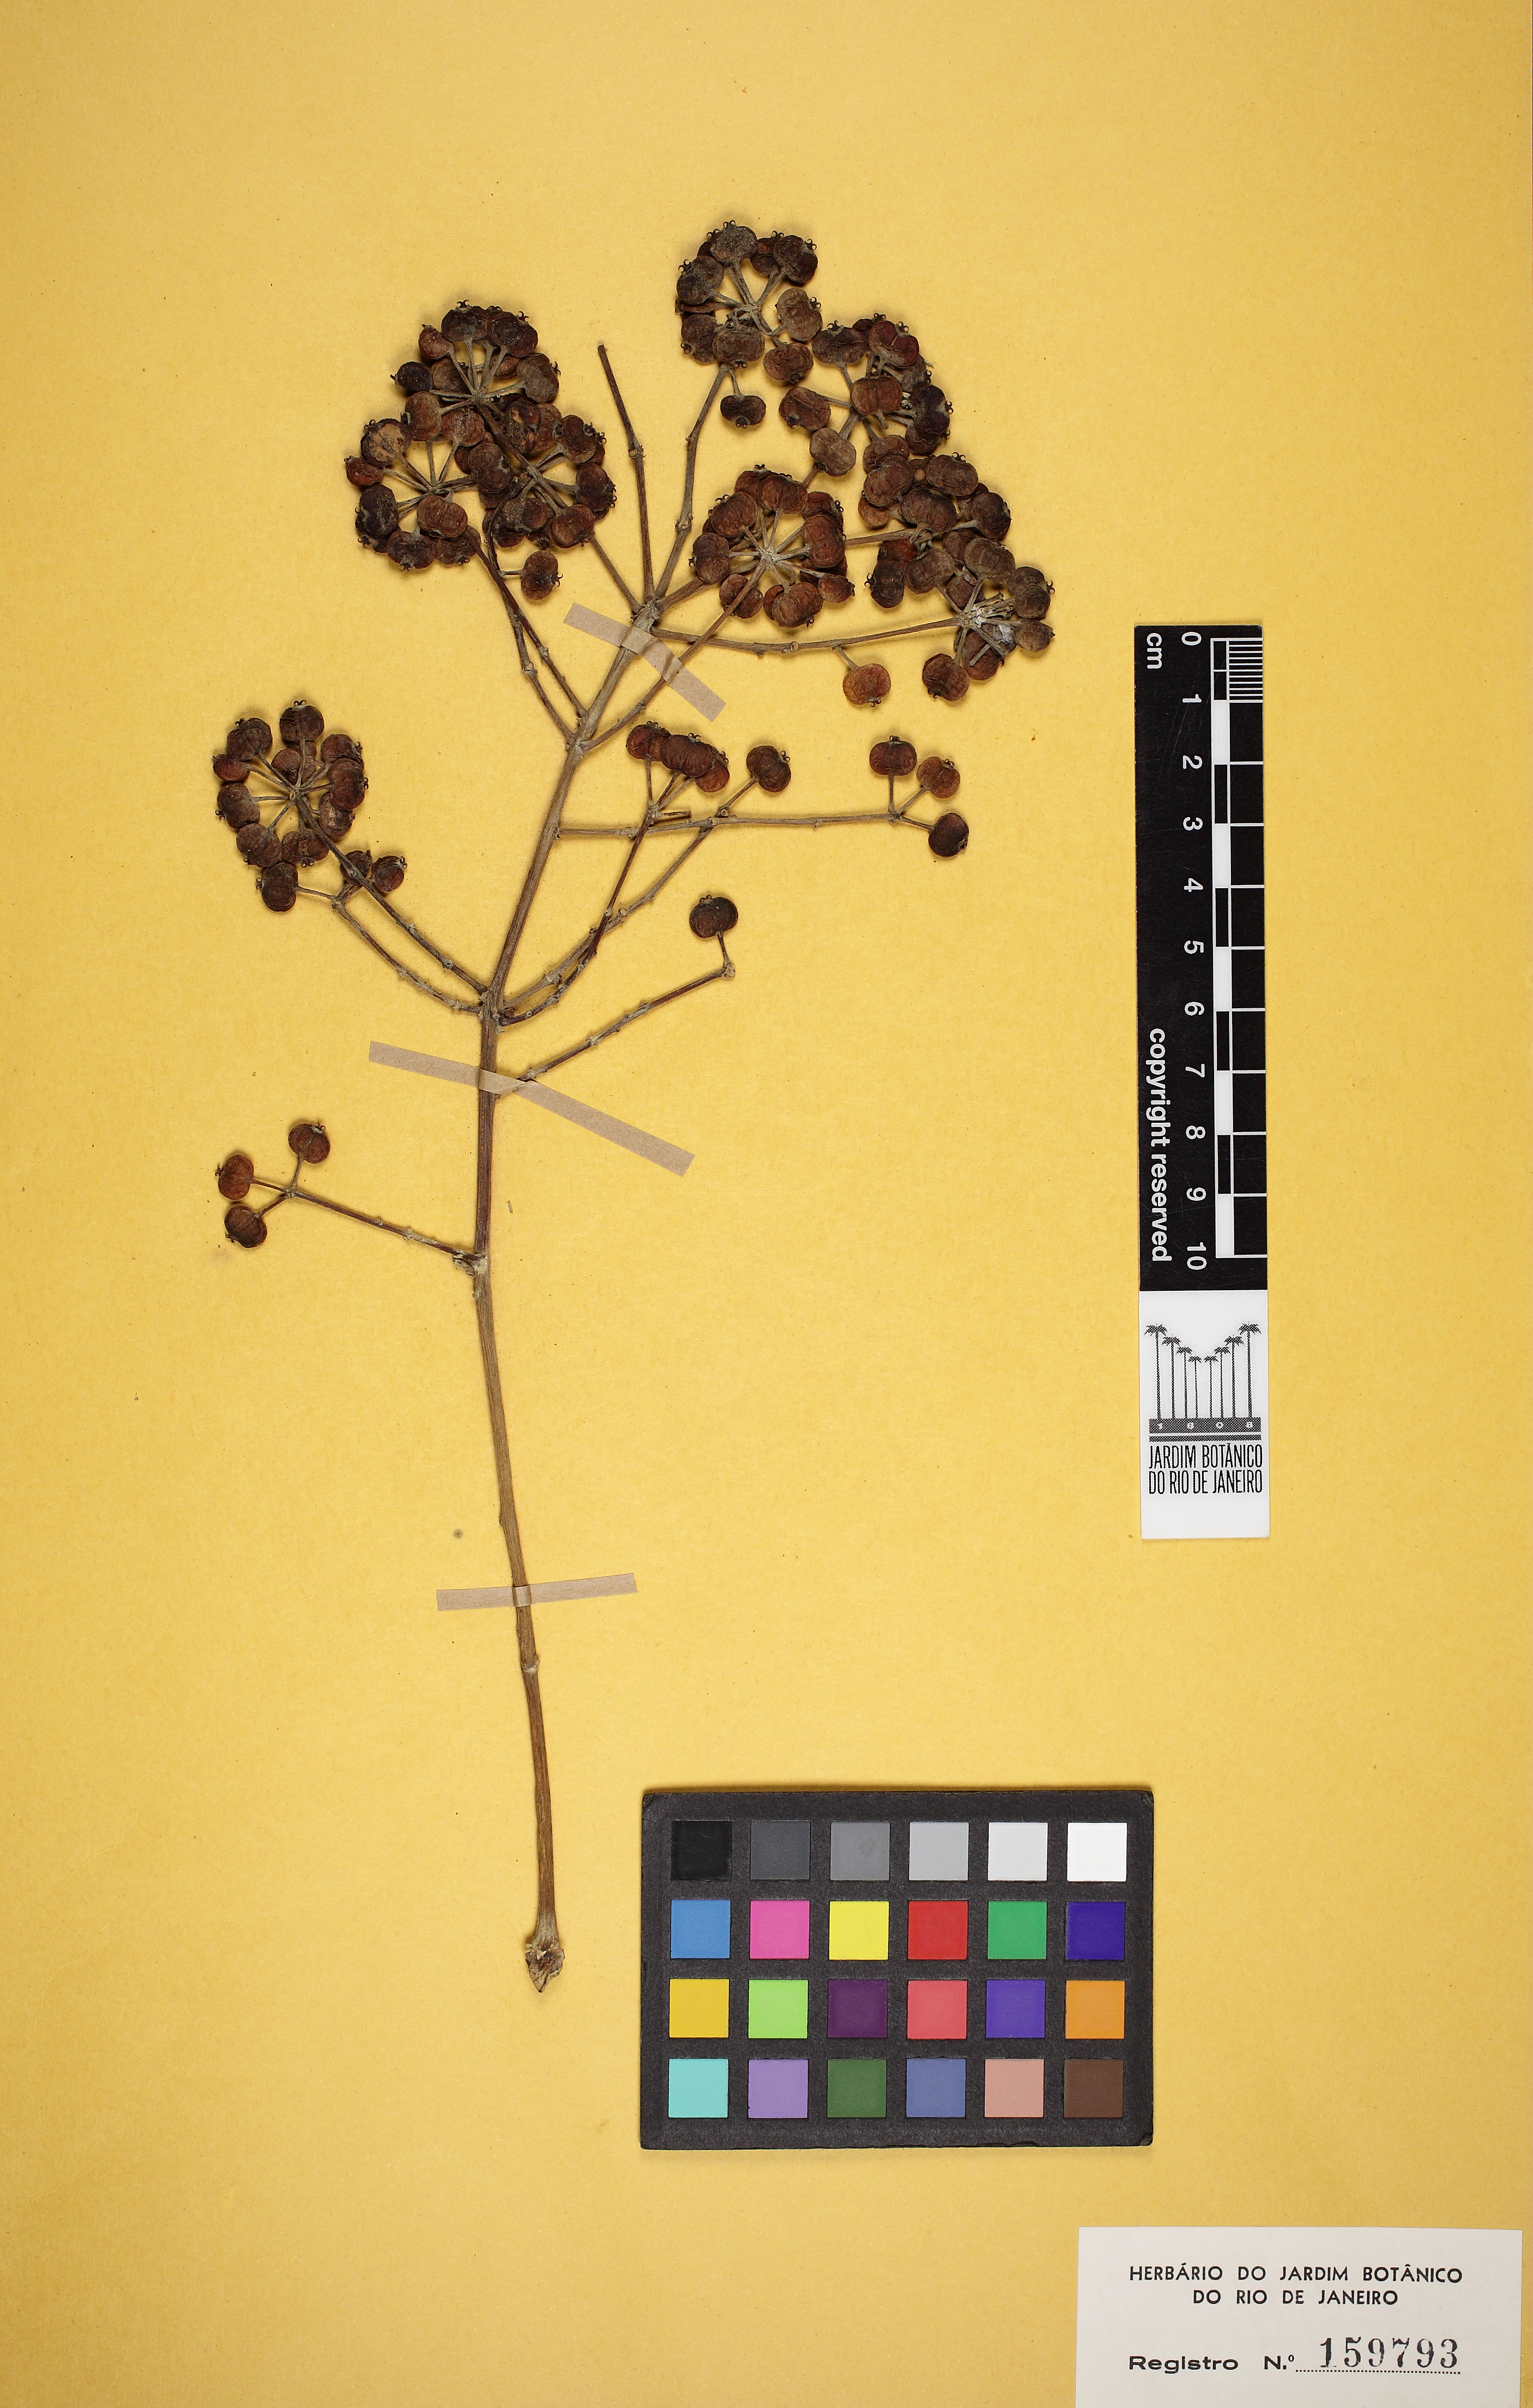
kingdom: Plantae
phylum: Tracheophyta
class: Magnoliopsida
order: Apiales
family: Araliaceae
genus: Didymopanax
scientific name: Didymopanax calvus
